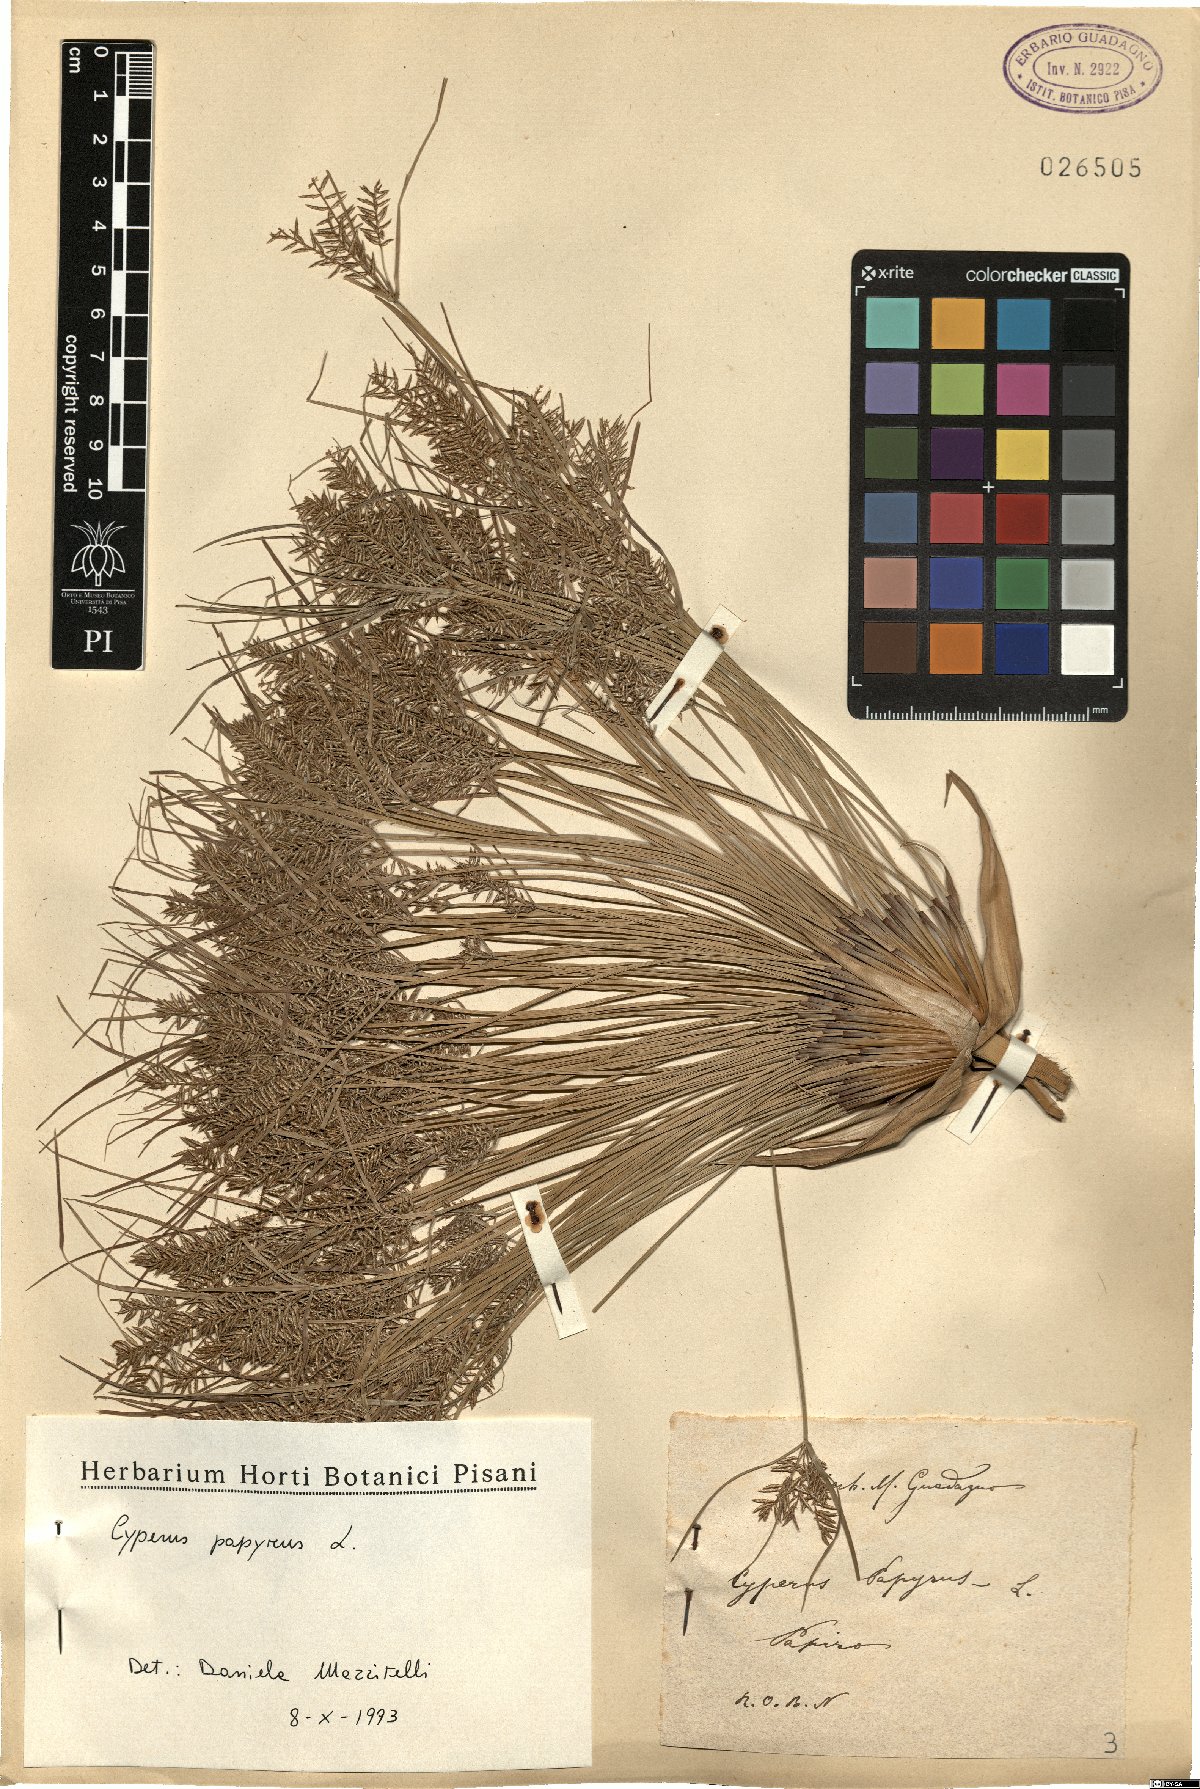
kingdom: Plantae
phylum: Tracheophyta
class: Liliopsida
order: Poales
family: Cyperaceae
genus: Cyperus
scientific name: Cyperus papyrus
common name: Papyrus
